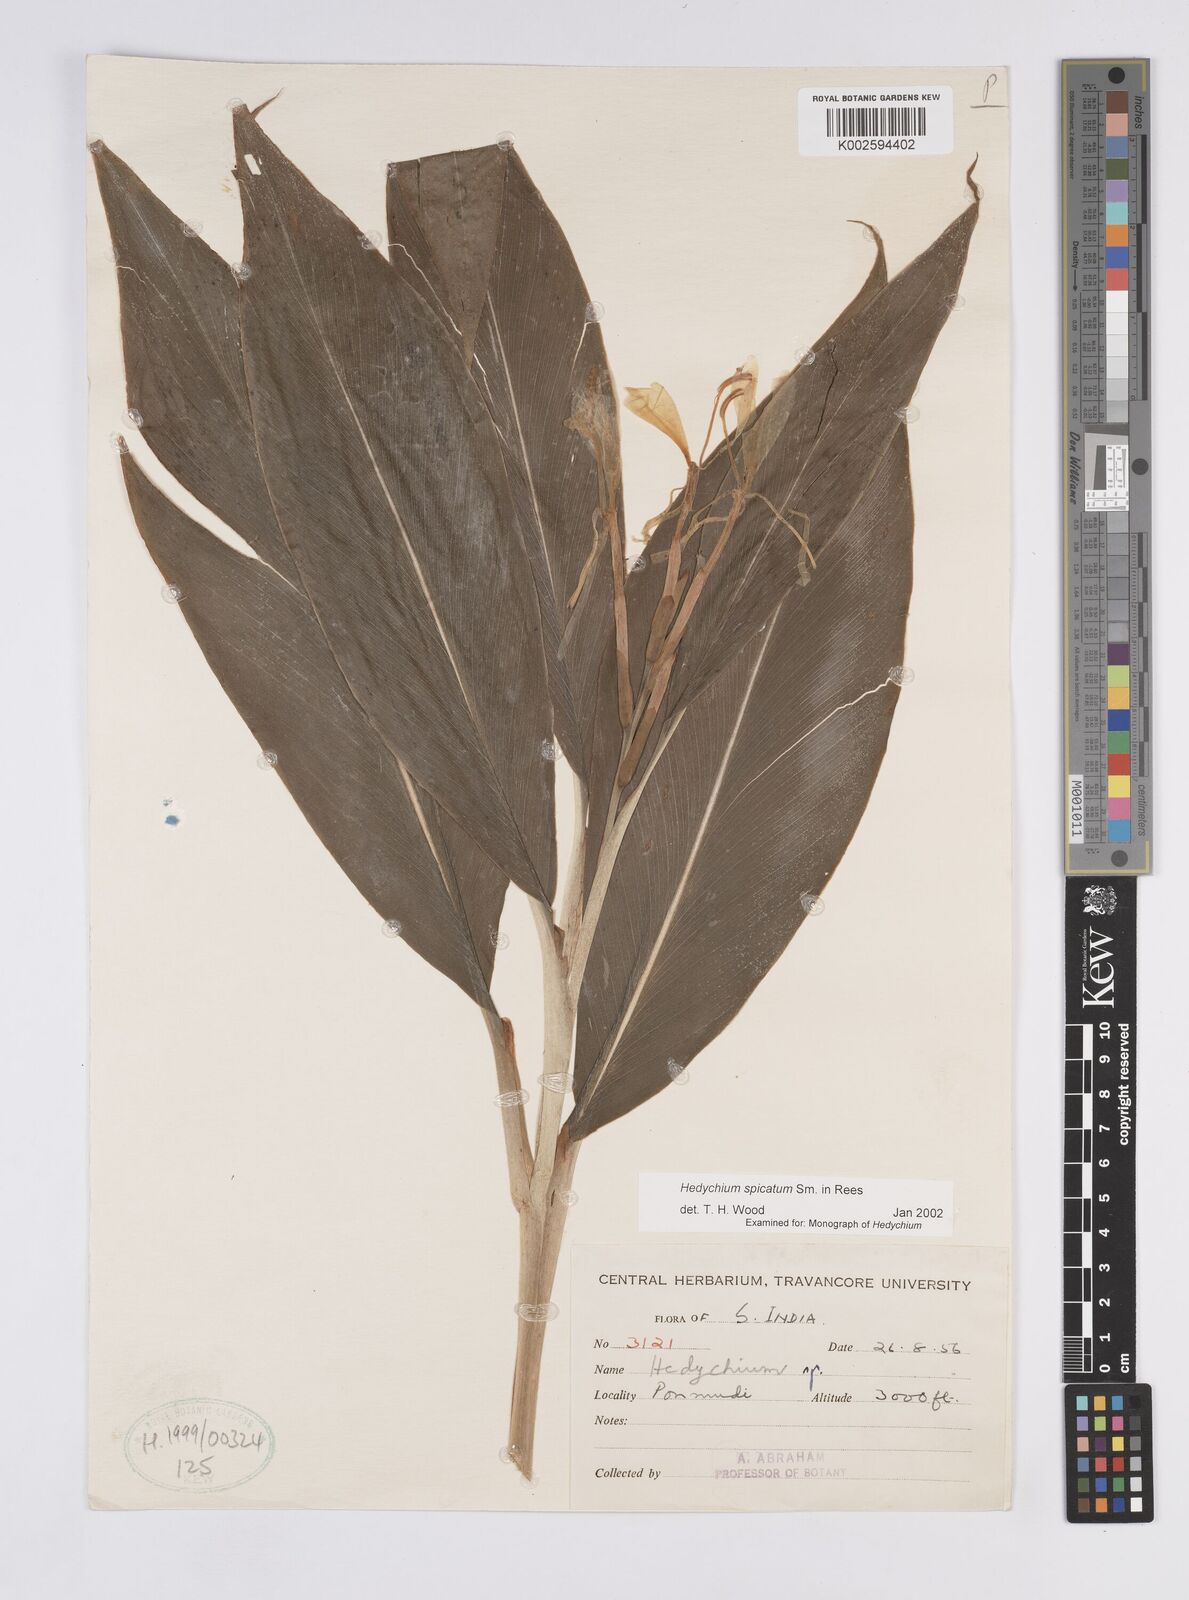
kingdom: Plantae
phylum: Tracheophyta
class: Liliopsida
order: Zingiberales
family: Zingiberaceae
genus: Hedychium
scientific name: Hedychium spicatum
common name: Spiked ginger-lily
